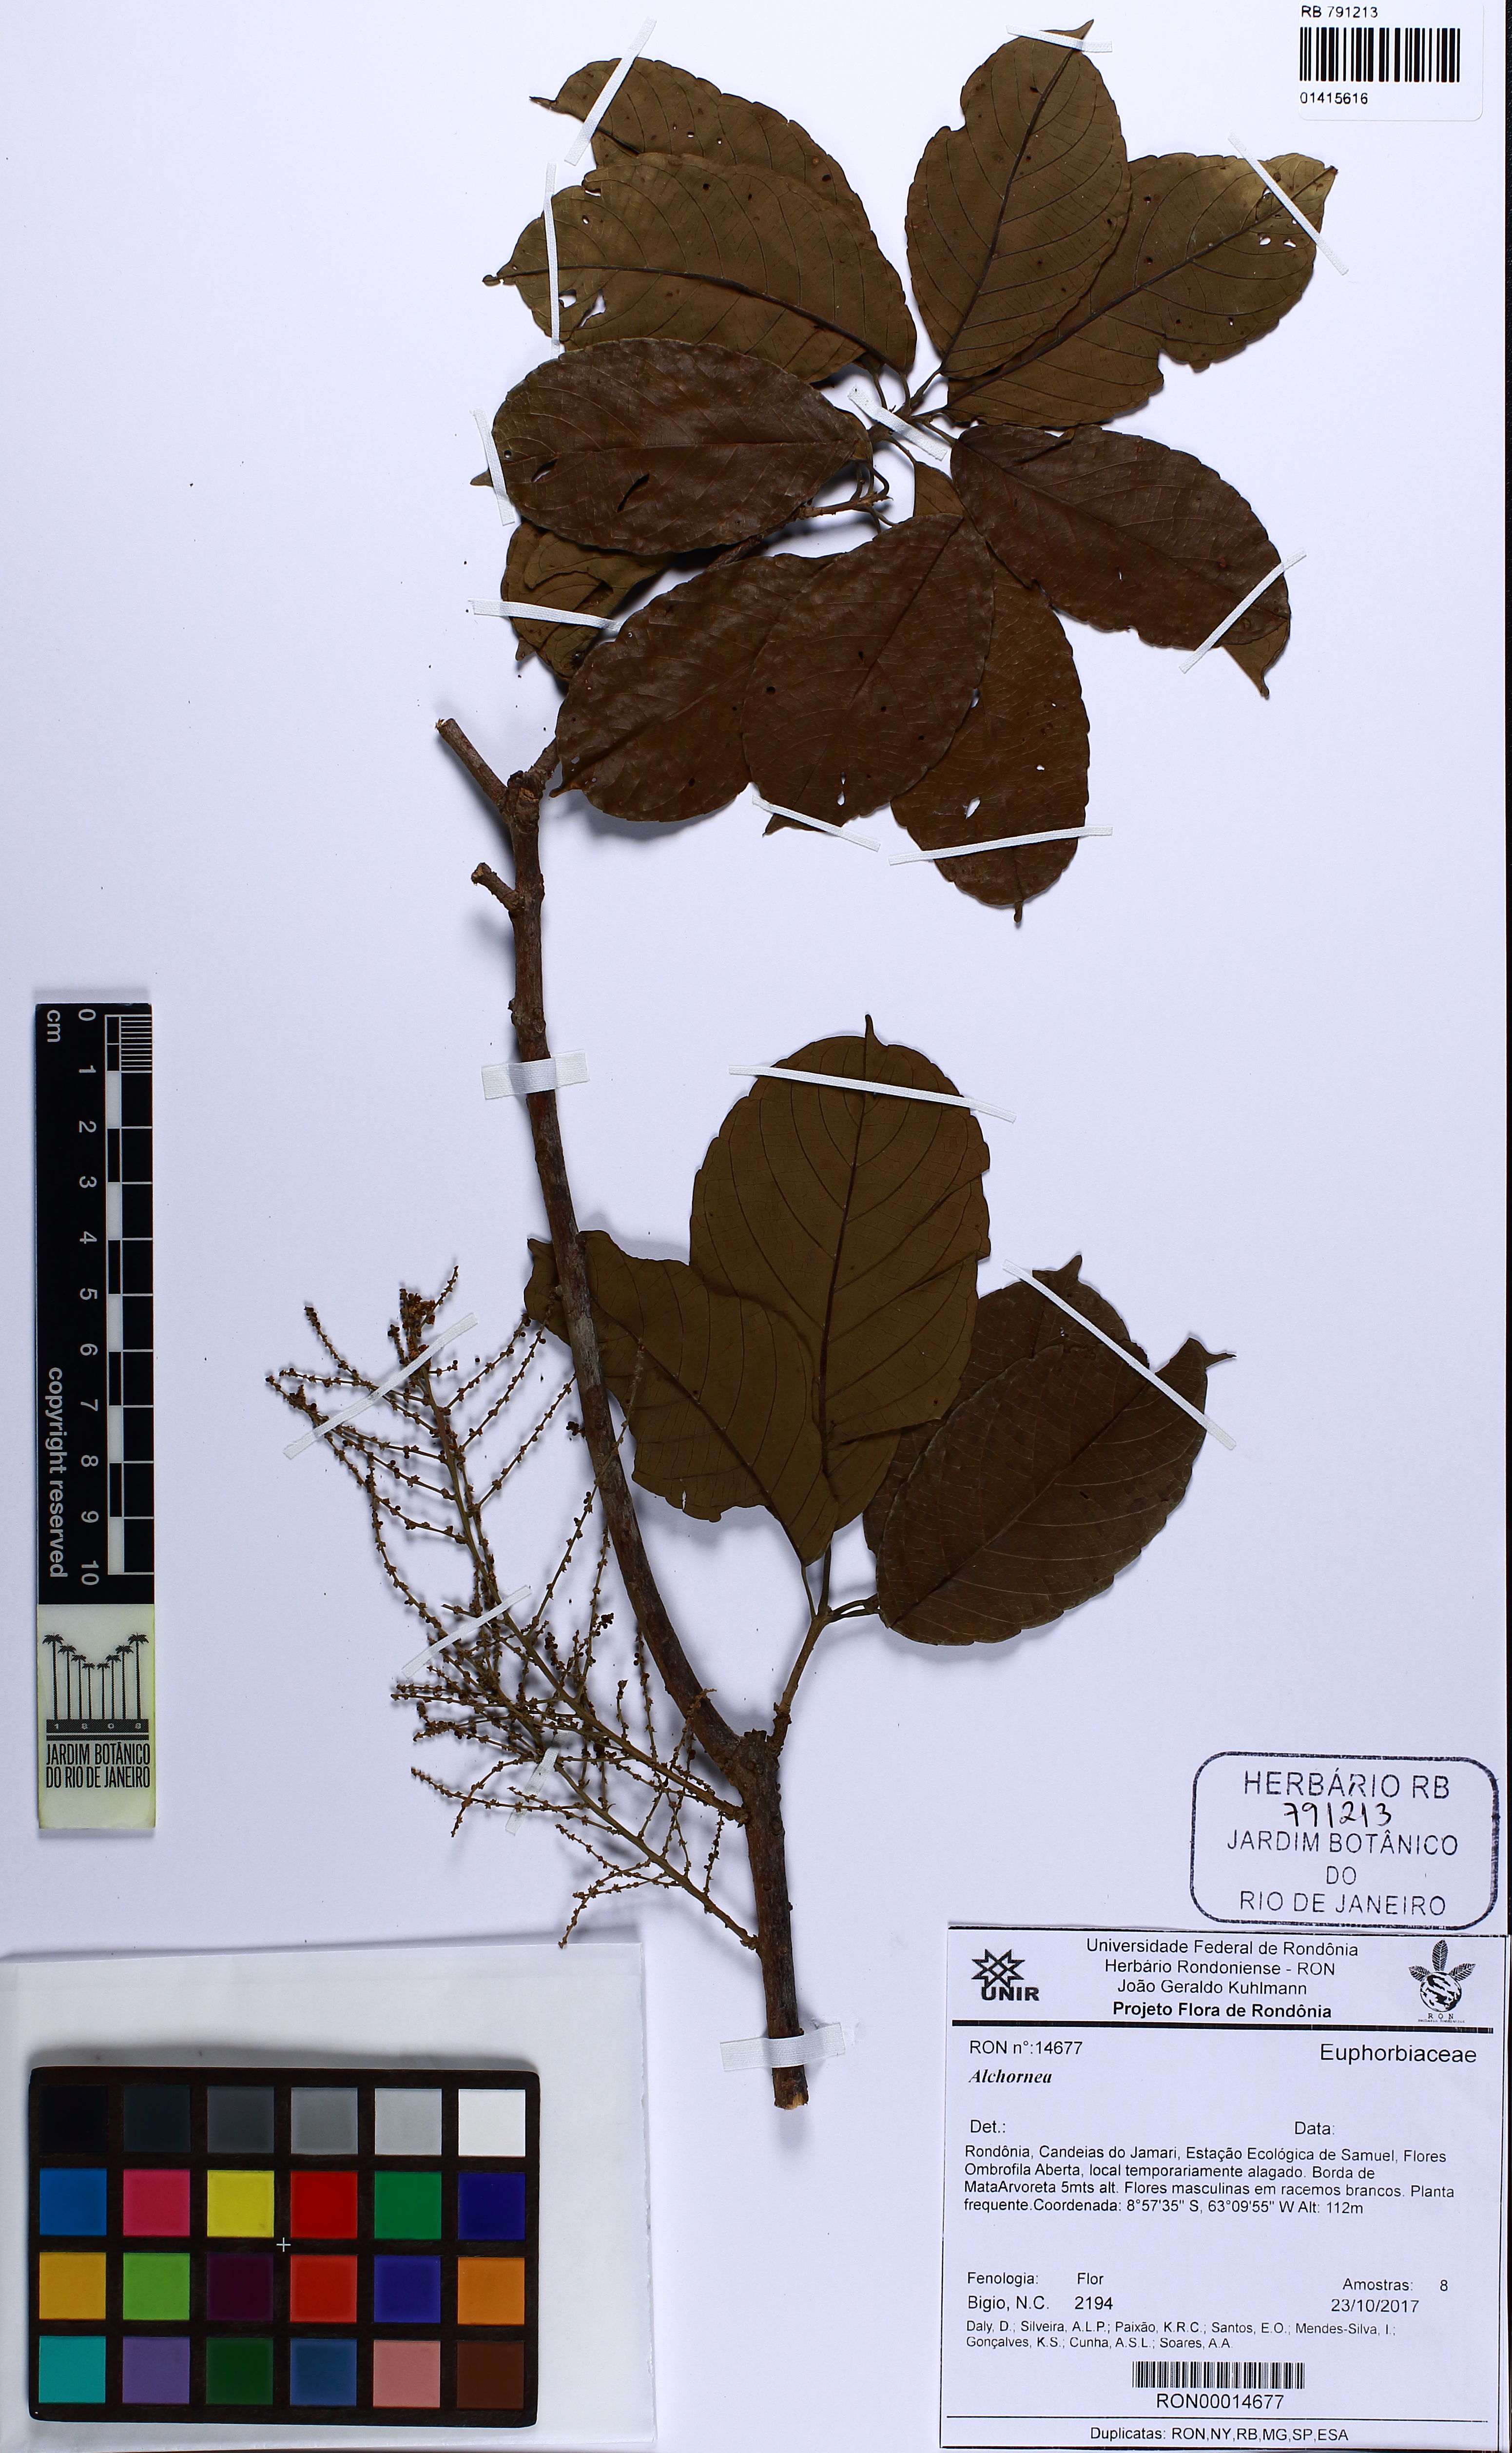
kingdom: Plantae
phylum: Tracheophyta
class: Magnoliopsida
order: Malpighiales
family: Euphorbiaceae
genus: Alchornea
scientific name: Alchornea
